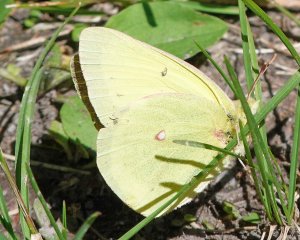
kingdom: Animalia
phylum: Arthropoda
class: Insecta
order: Lepidoptera
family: Pieridae
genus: Colias
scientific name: Colias philodice
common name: Clouded Sulphur
